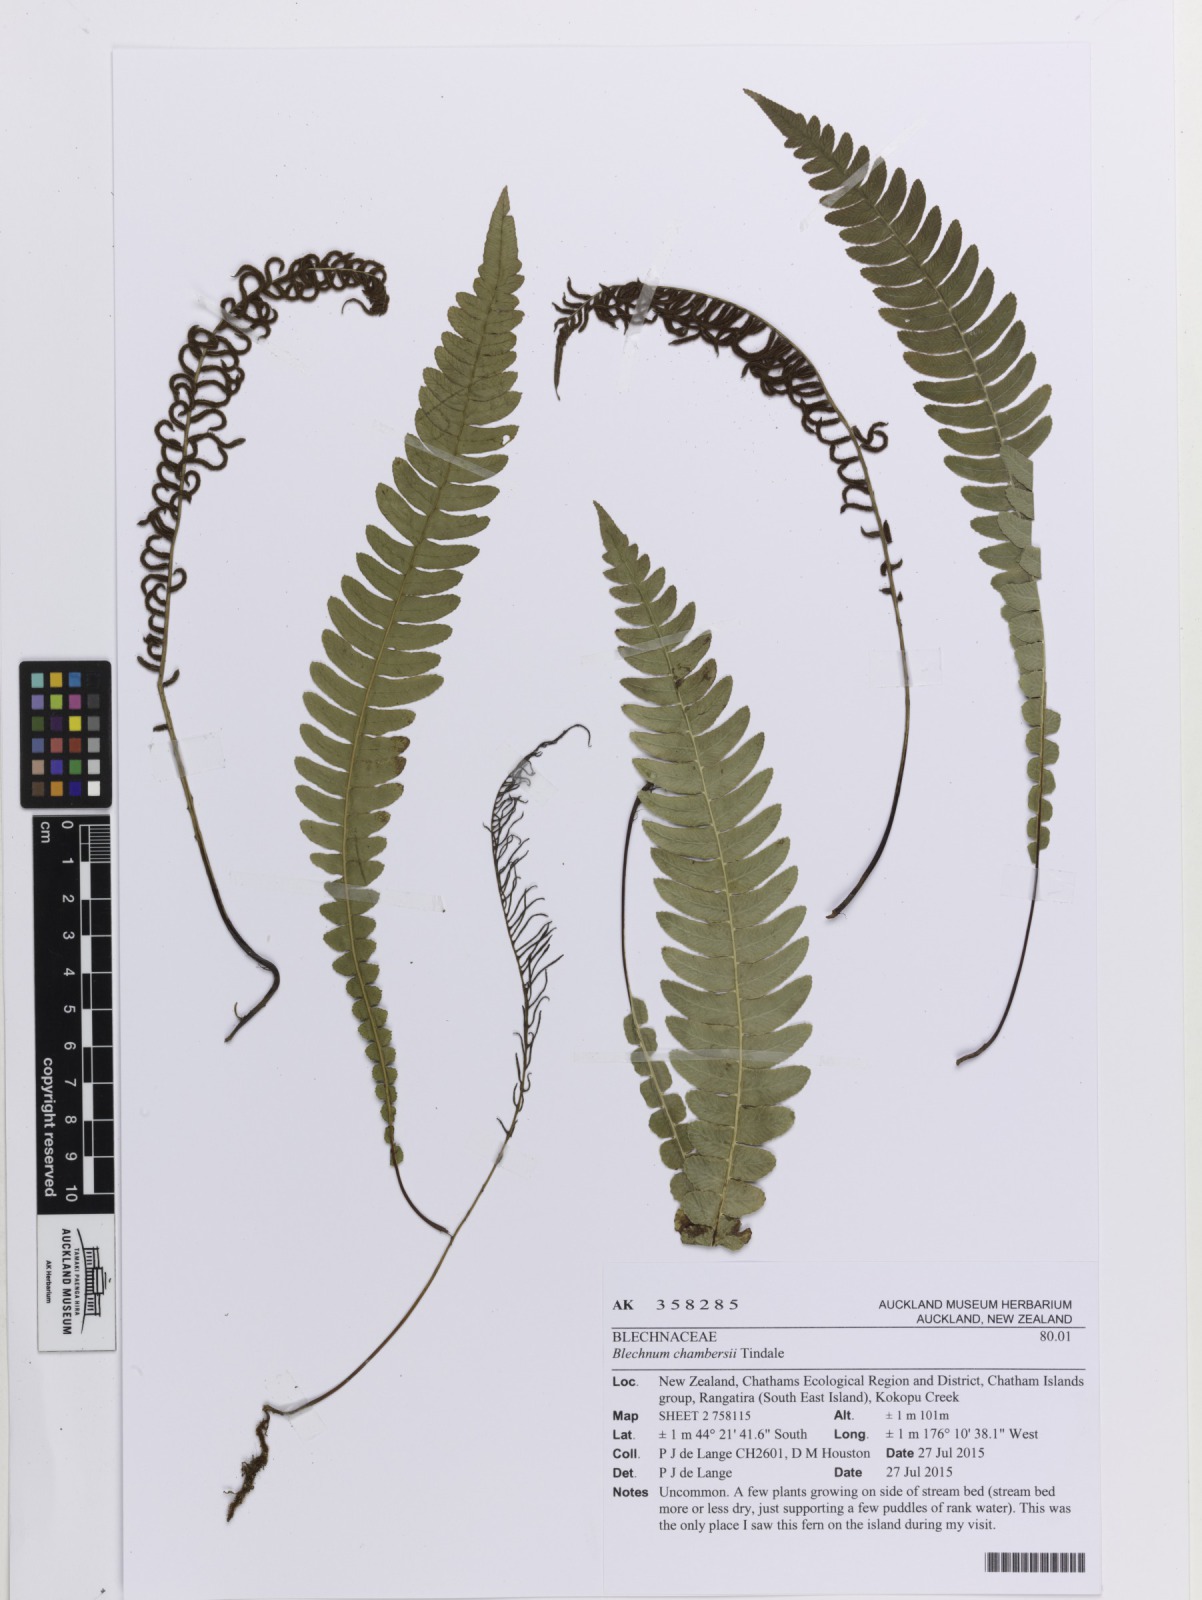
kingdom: Plantae
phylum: Tracheophyta
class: Polypodiopsida
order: Polypodiales
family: Blechnaceae
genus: Austroblechnum
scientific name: Austroblechnum lanceolatum
